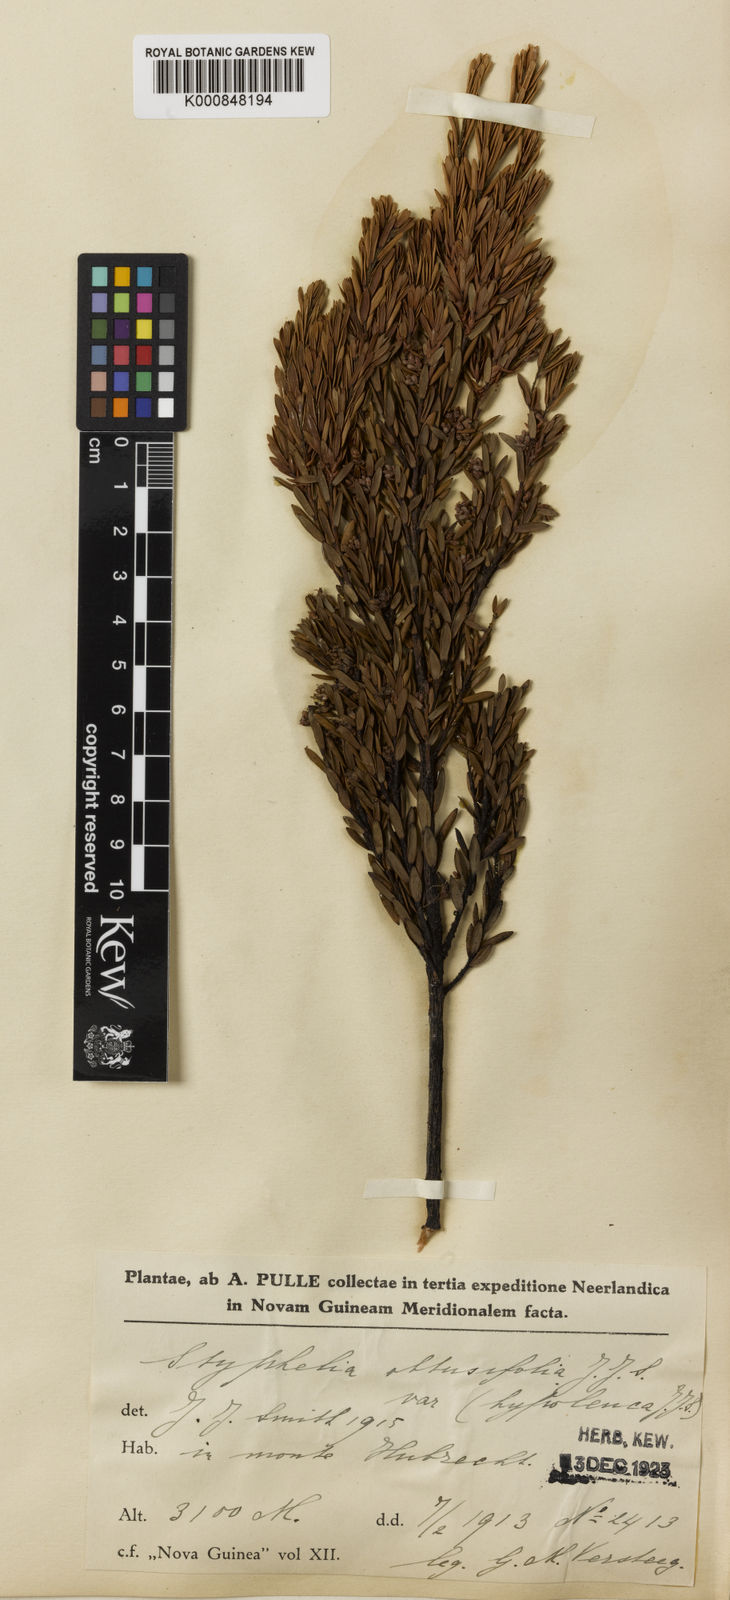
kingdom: Plantae
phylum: Tracheophyta
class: Magnoliopsida
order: Ericales
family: Ericaceae
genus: Styphelia
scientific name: Styphelia
